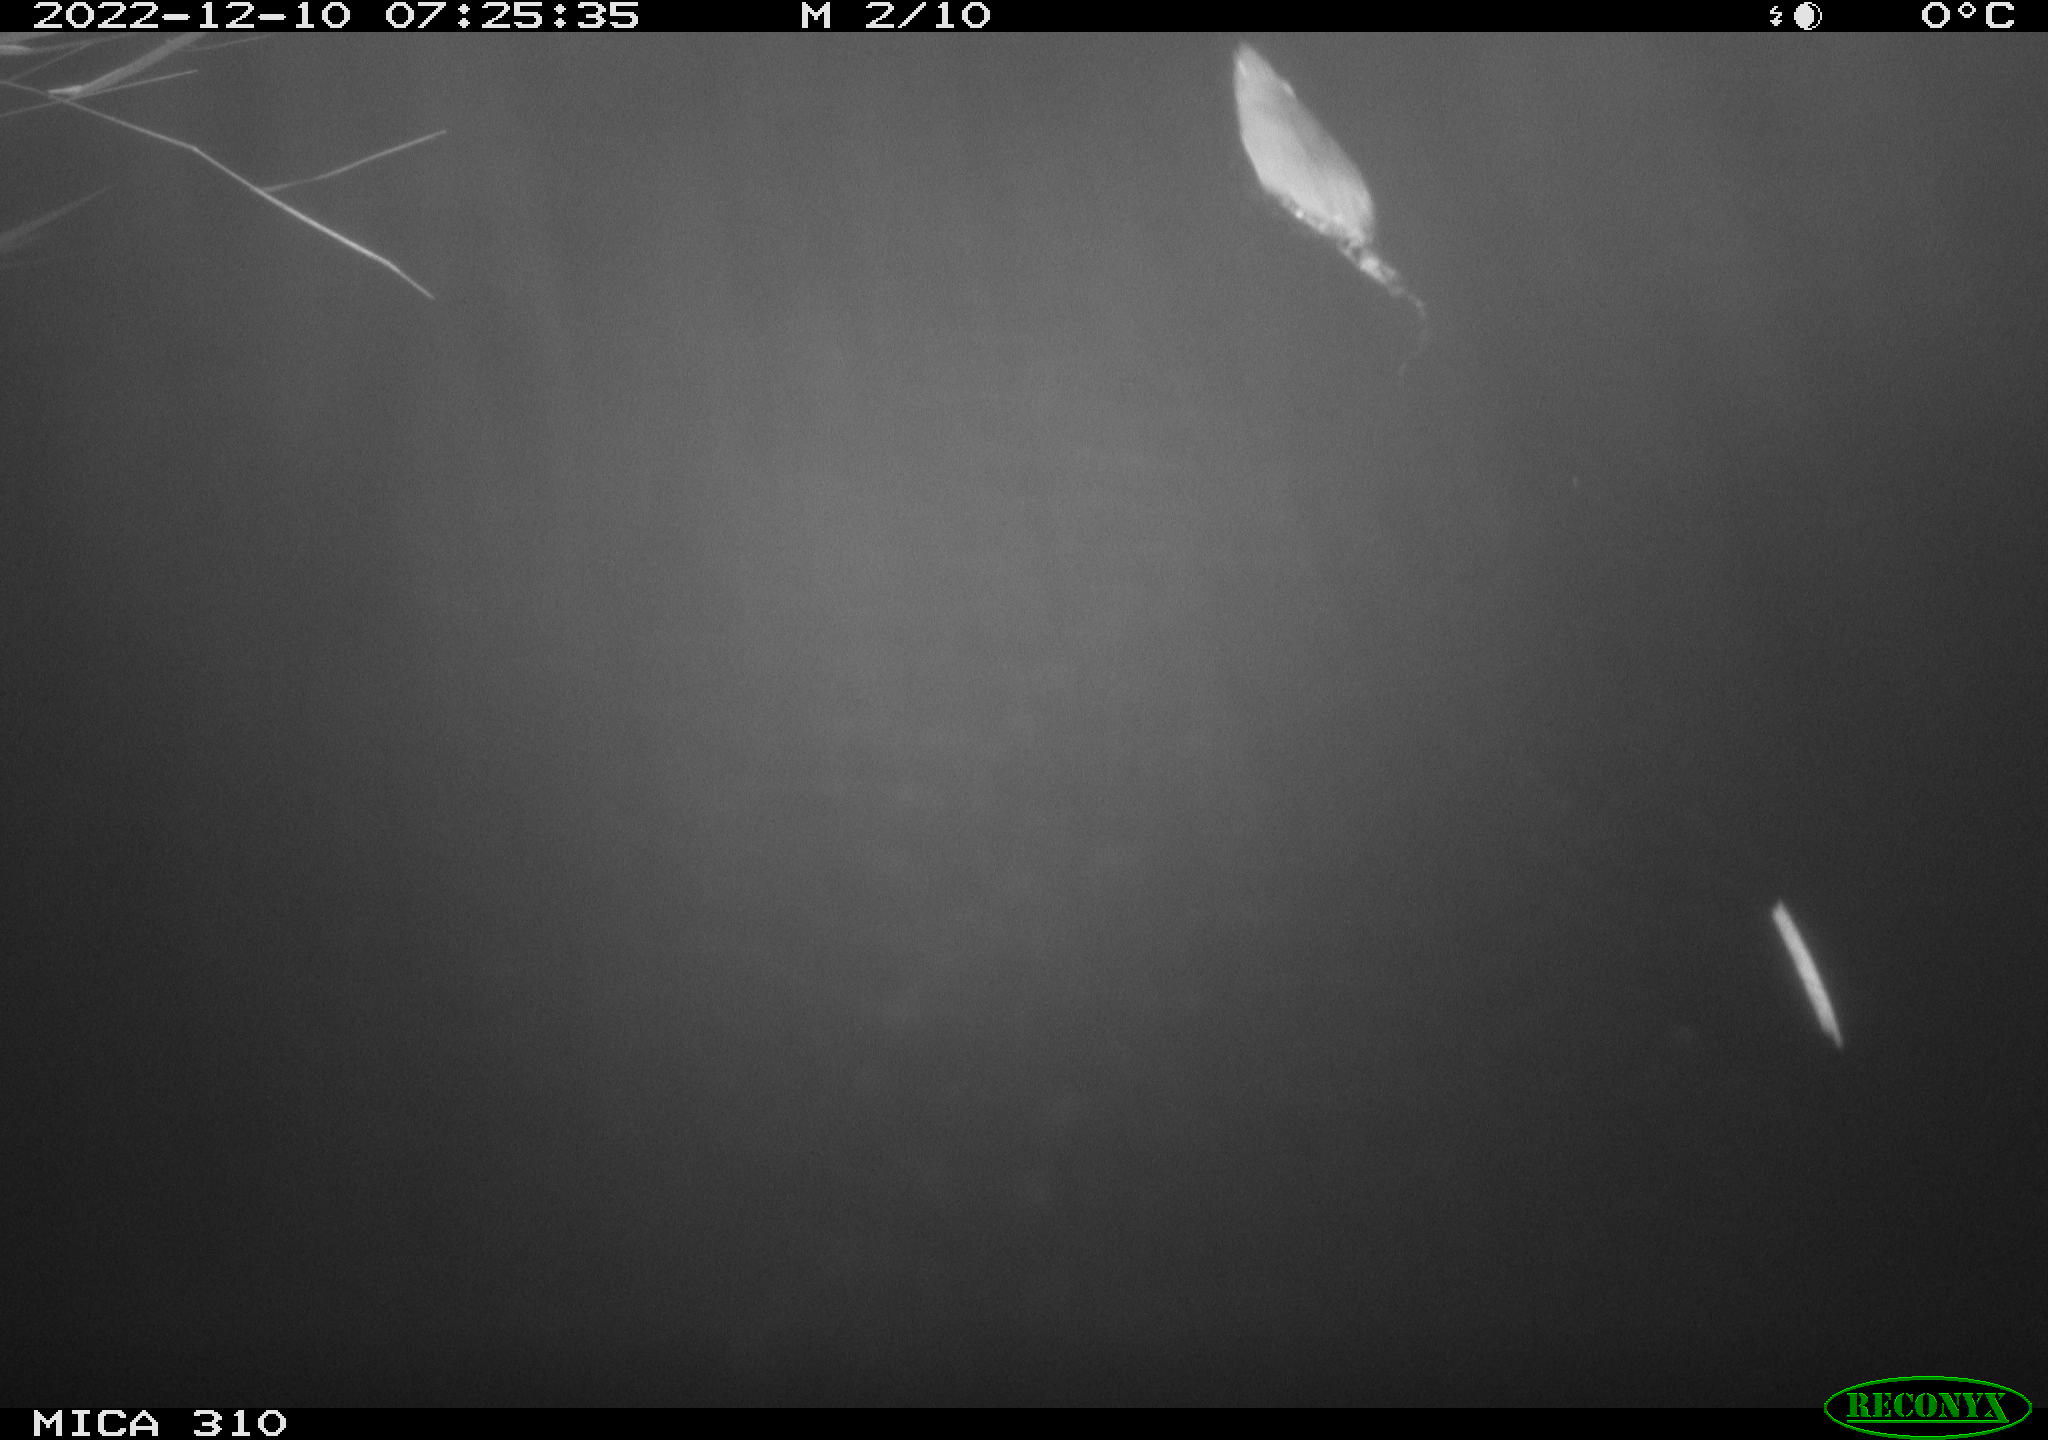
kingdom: Animalia
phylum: Chordata
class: Mammalia
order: Rodentia
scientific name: Rodentia
